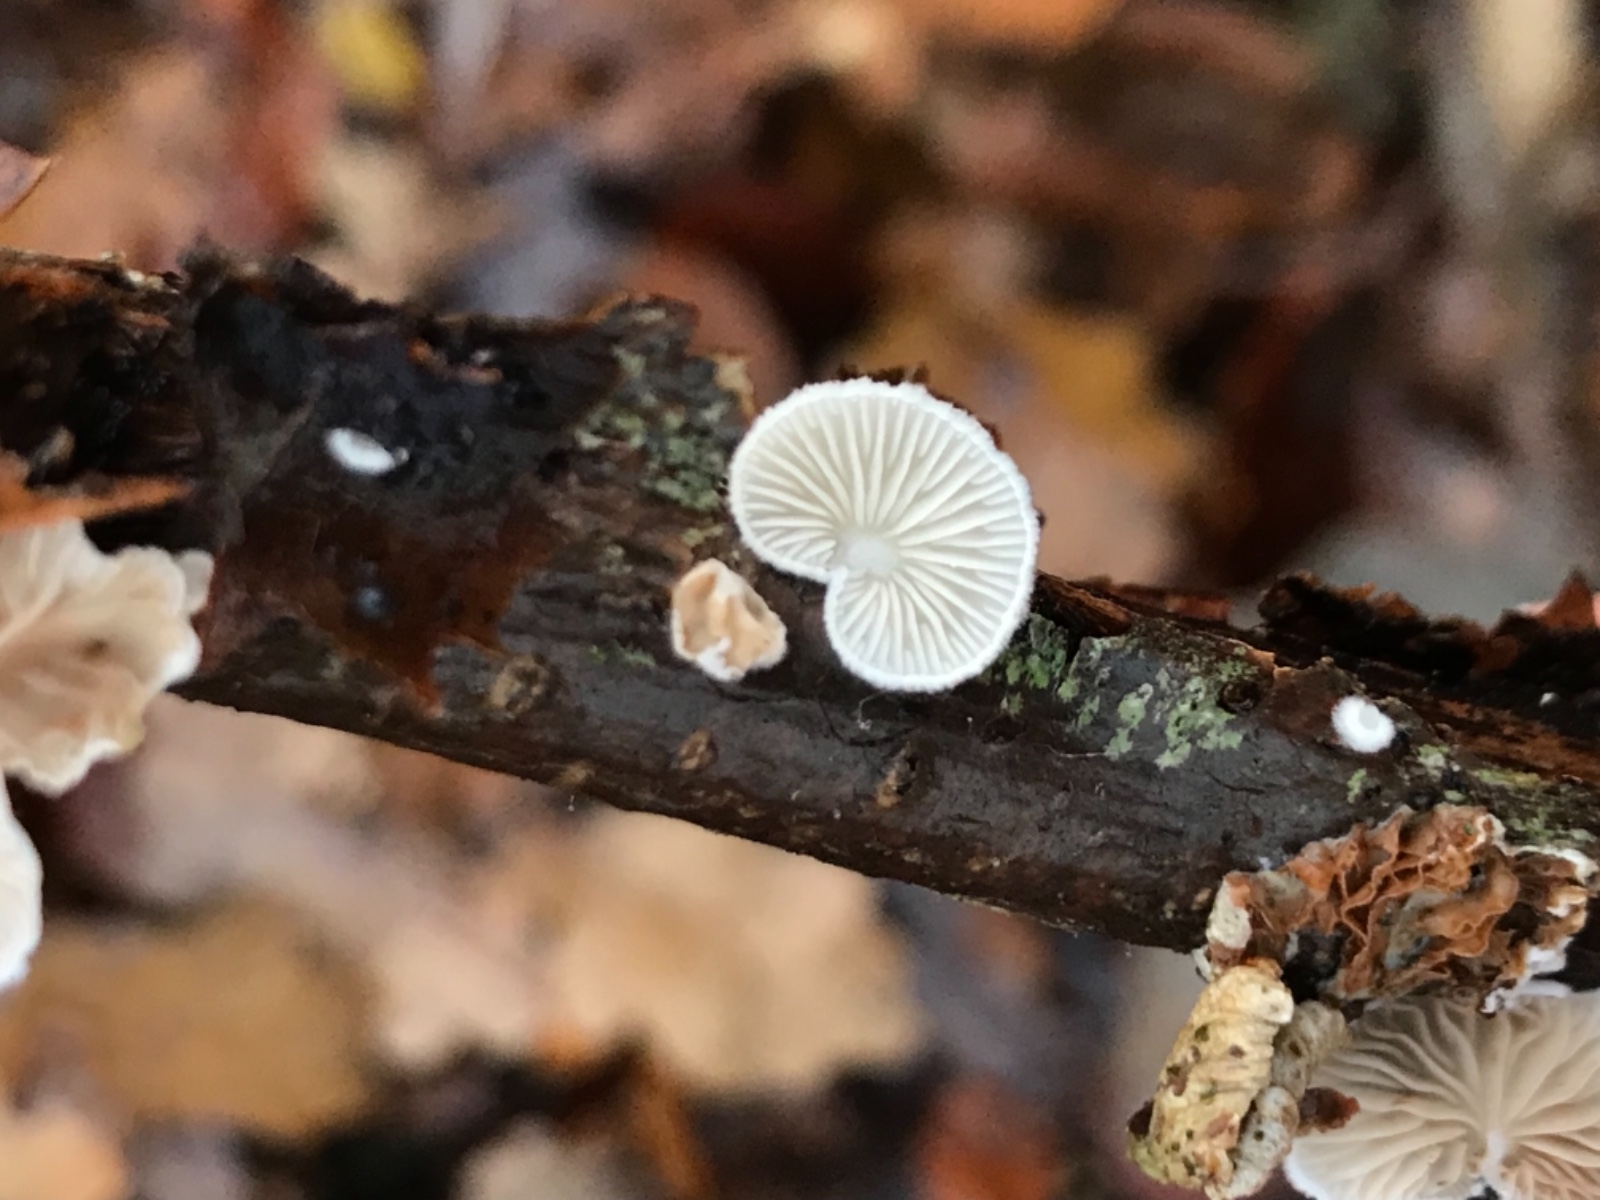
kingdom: Fungi
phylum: Basidiomycota
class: Agaricomycetes
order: Agaricales
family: Entolomataceae
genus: Clitopilus
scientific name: Clitopilus hobsonii
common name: Miller's oysterling
